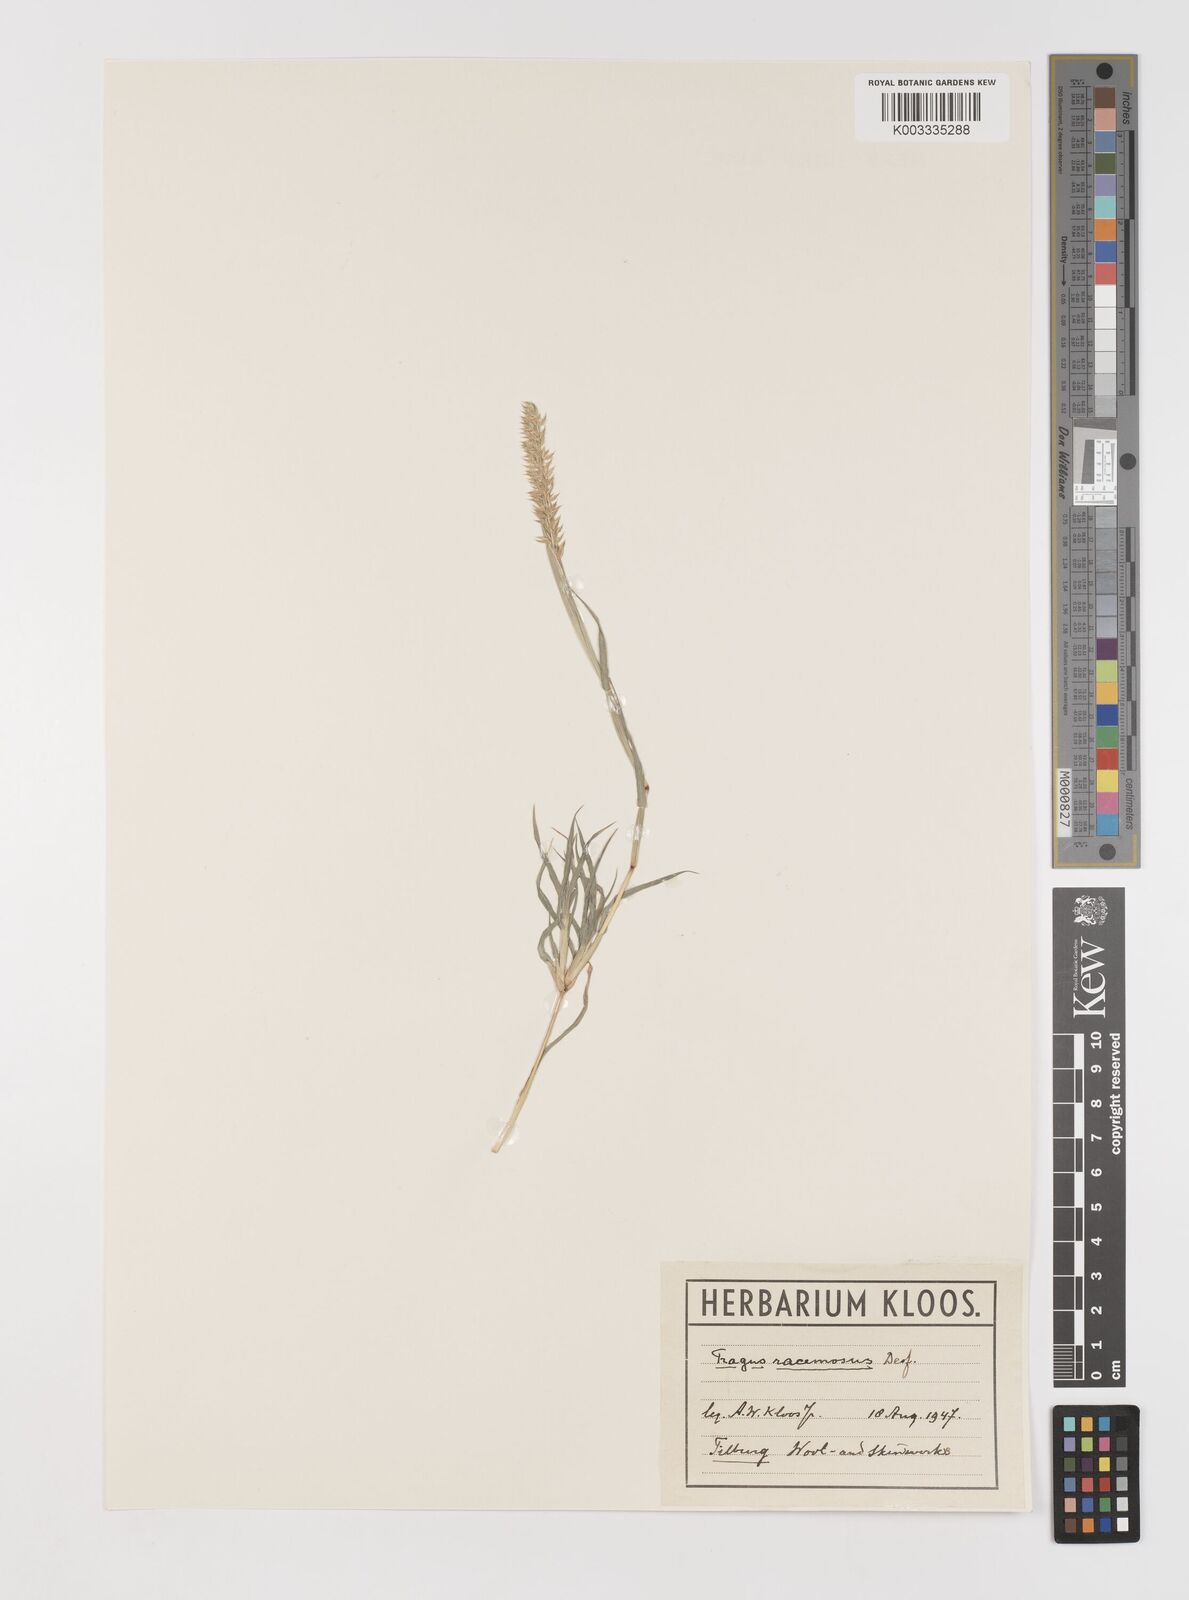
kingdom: Plantae
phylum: Tracheophyta
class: Liliopsida
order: Poales
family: Poaceae
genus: Tragus
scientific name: Tragus racemosus
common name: European bur-grass
